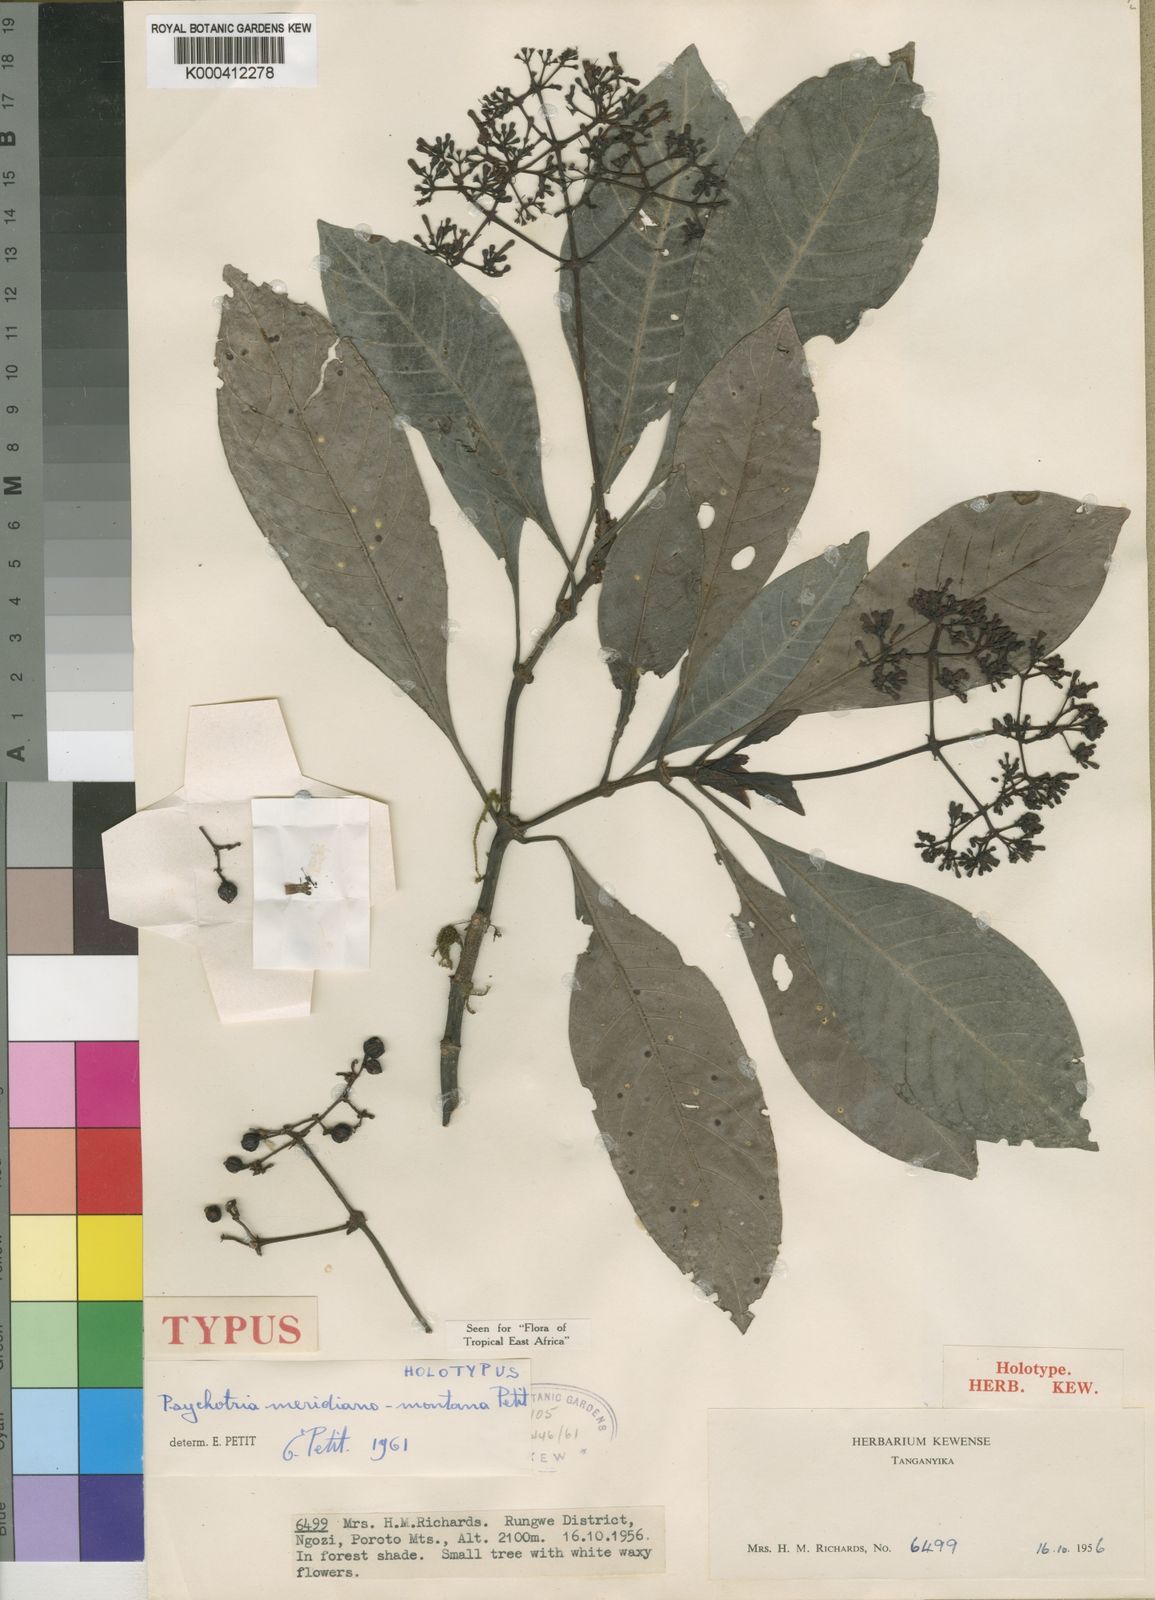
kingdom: Plantae
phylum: Tracheophyta
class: Magnoliopsida
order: Gentianales
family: Rubiaceae
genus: Psychotria
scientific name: Psychotria zombamontana
